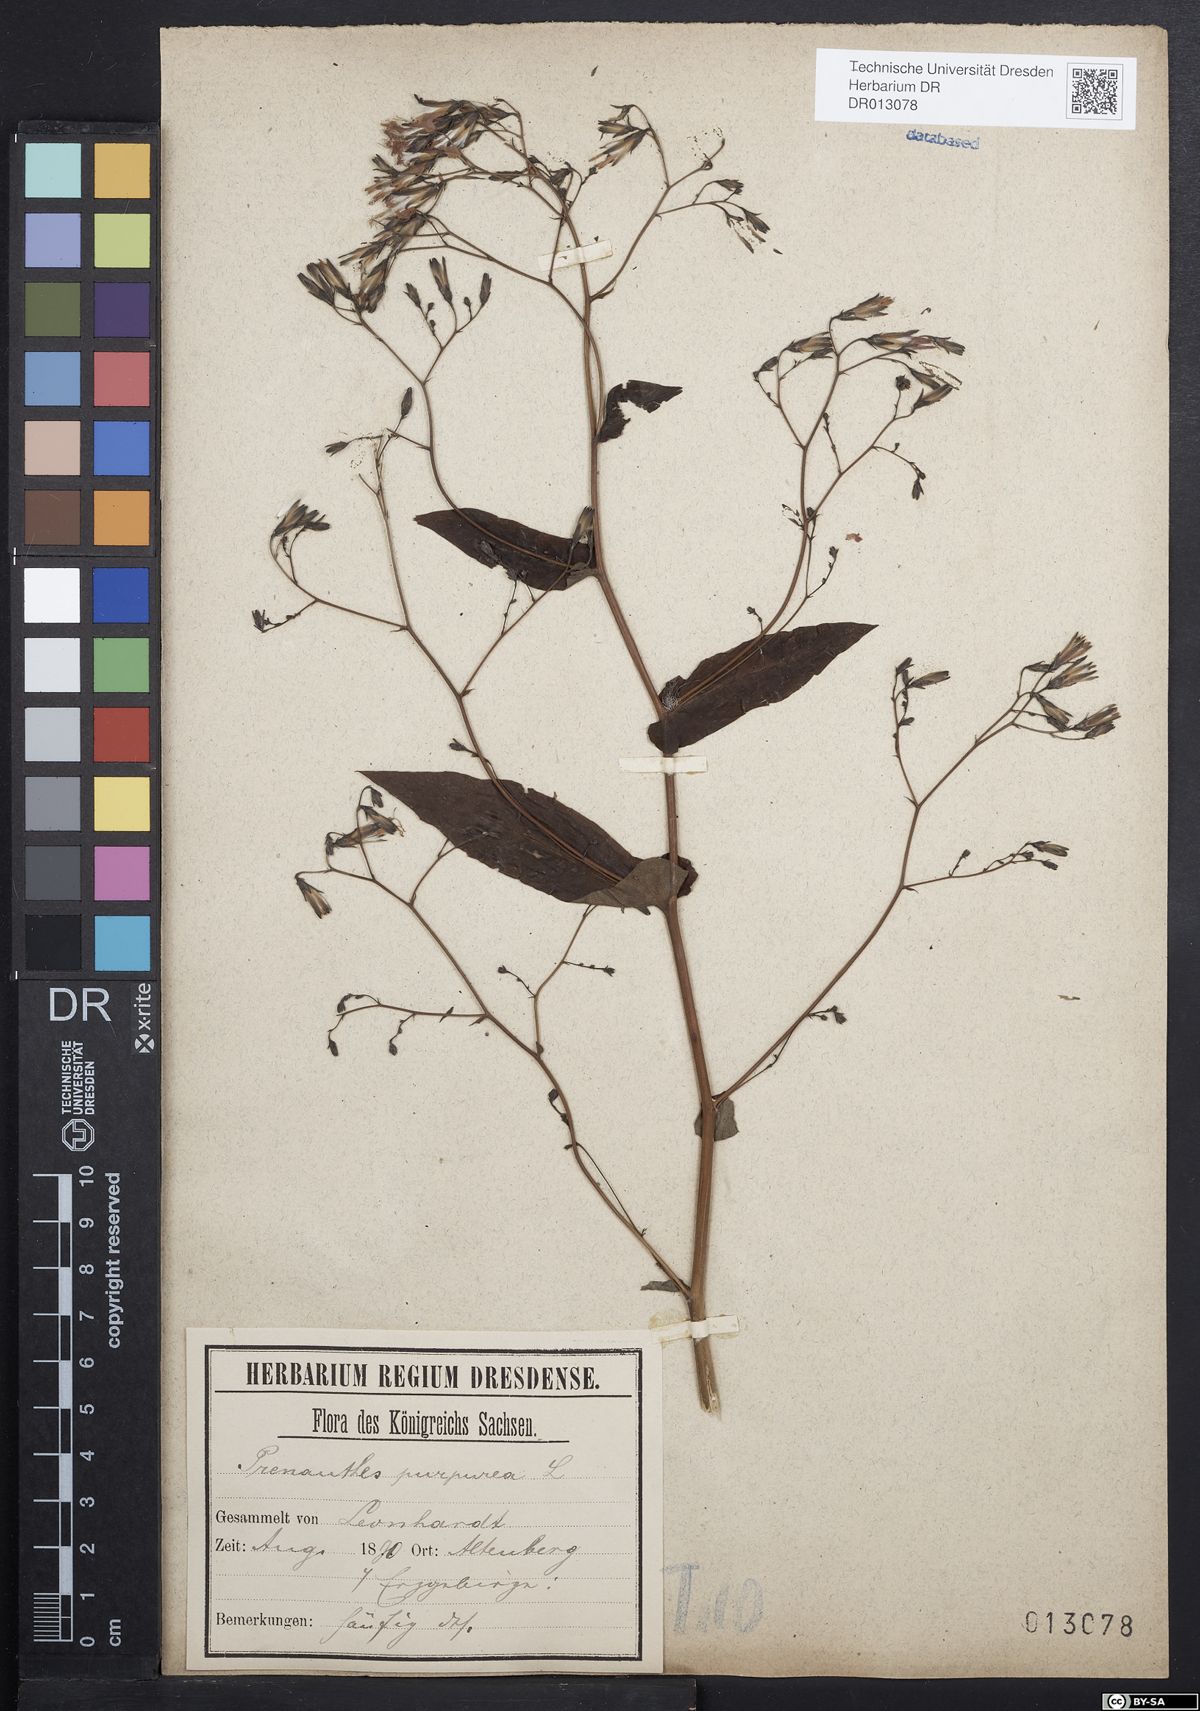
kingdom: Plantae
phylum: Tracheophyta
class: Magnoliopsida
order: Asterales
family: Asteraceae
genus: Prenanthes
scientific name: Prenanthes purpurea
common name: Purple lettuce
